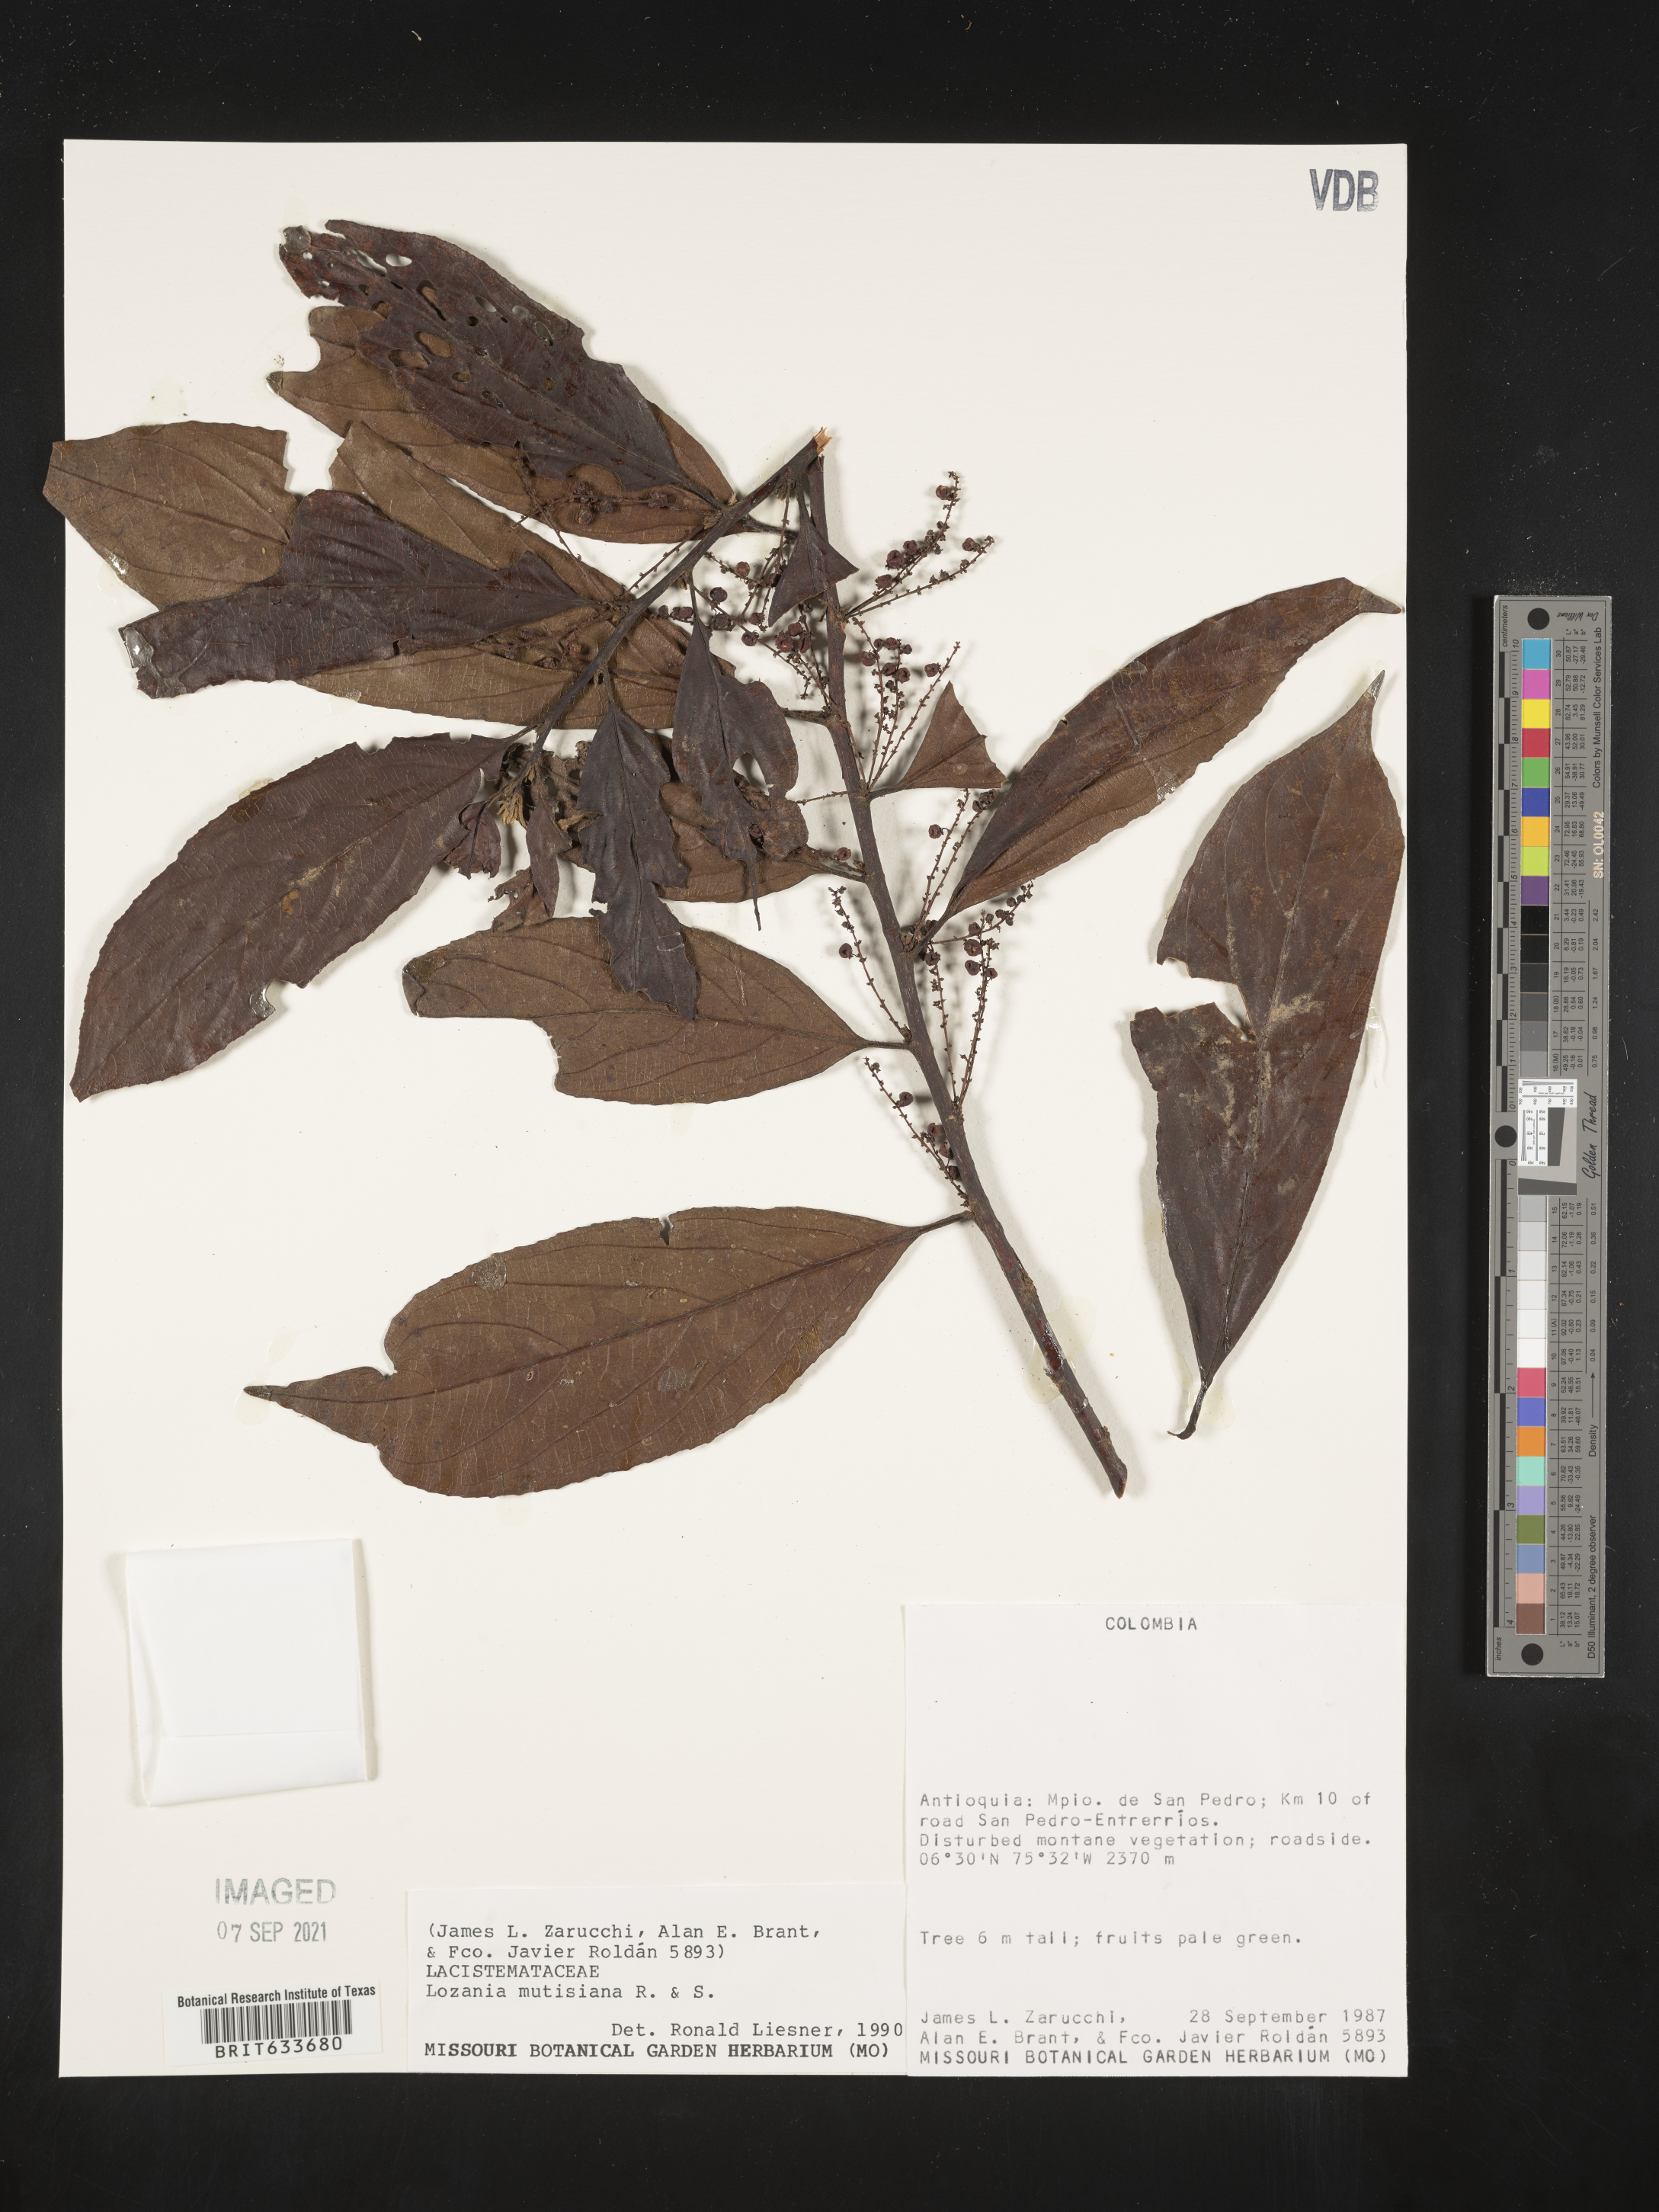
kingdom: Plantae
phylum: Tracheophyta
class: Magnoliopsida
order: Malpighiales
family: Lacistemataceae
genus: Lozania
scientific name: Lozania
